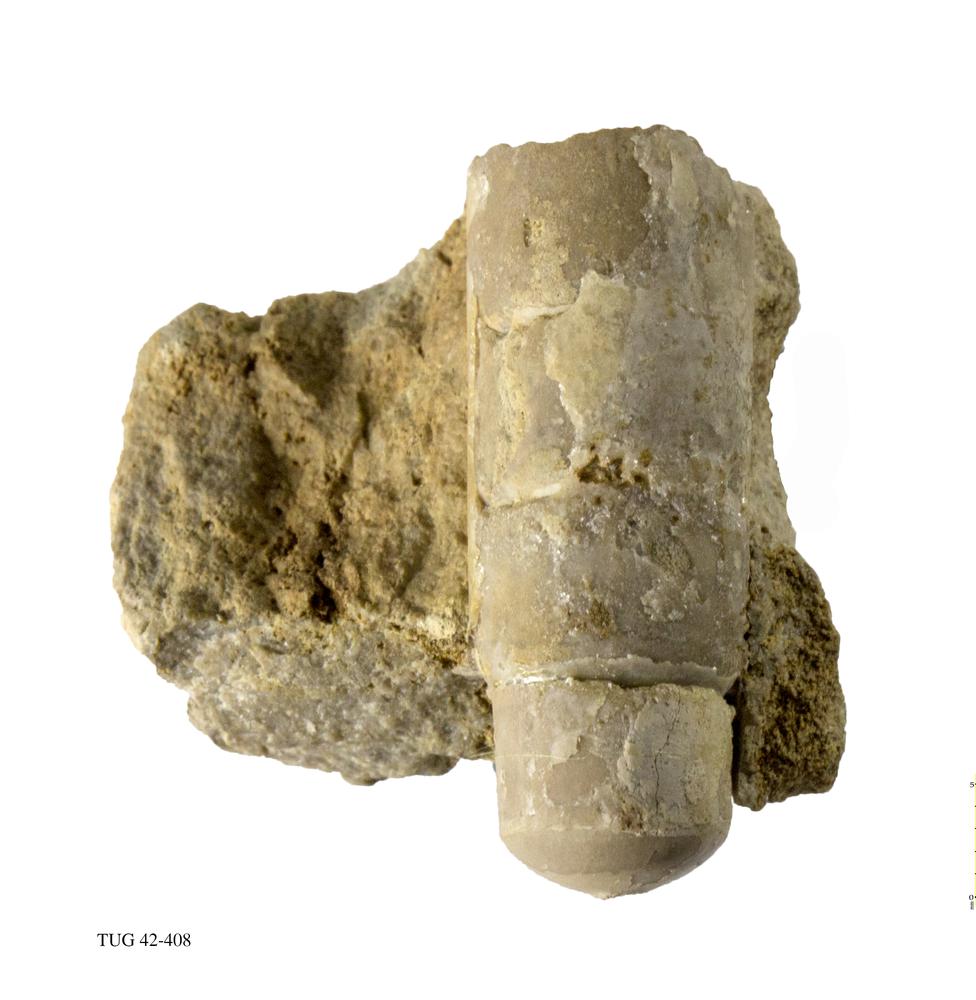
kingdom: Animalia
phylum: Mollusca
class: Cephalopoda
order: Orthocerida
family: Orthoceratidae
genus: Orthoceras
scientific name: Orthoceras regulare
